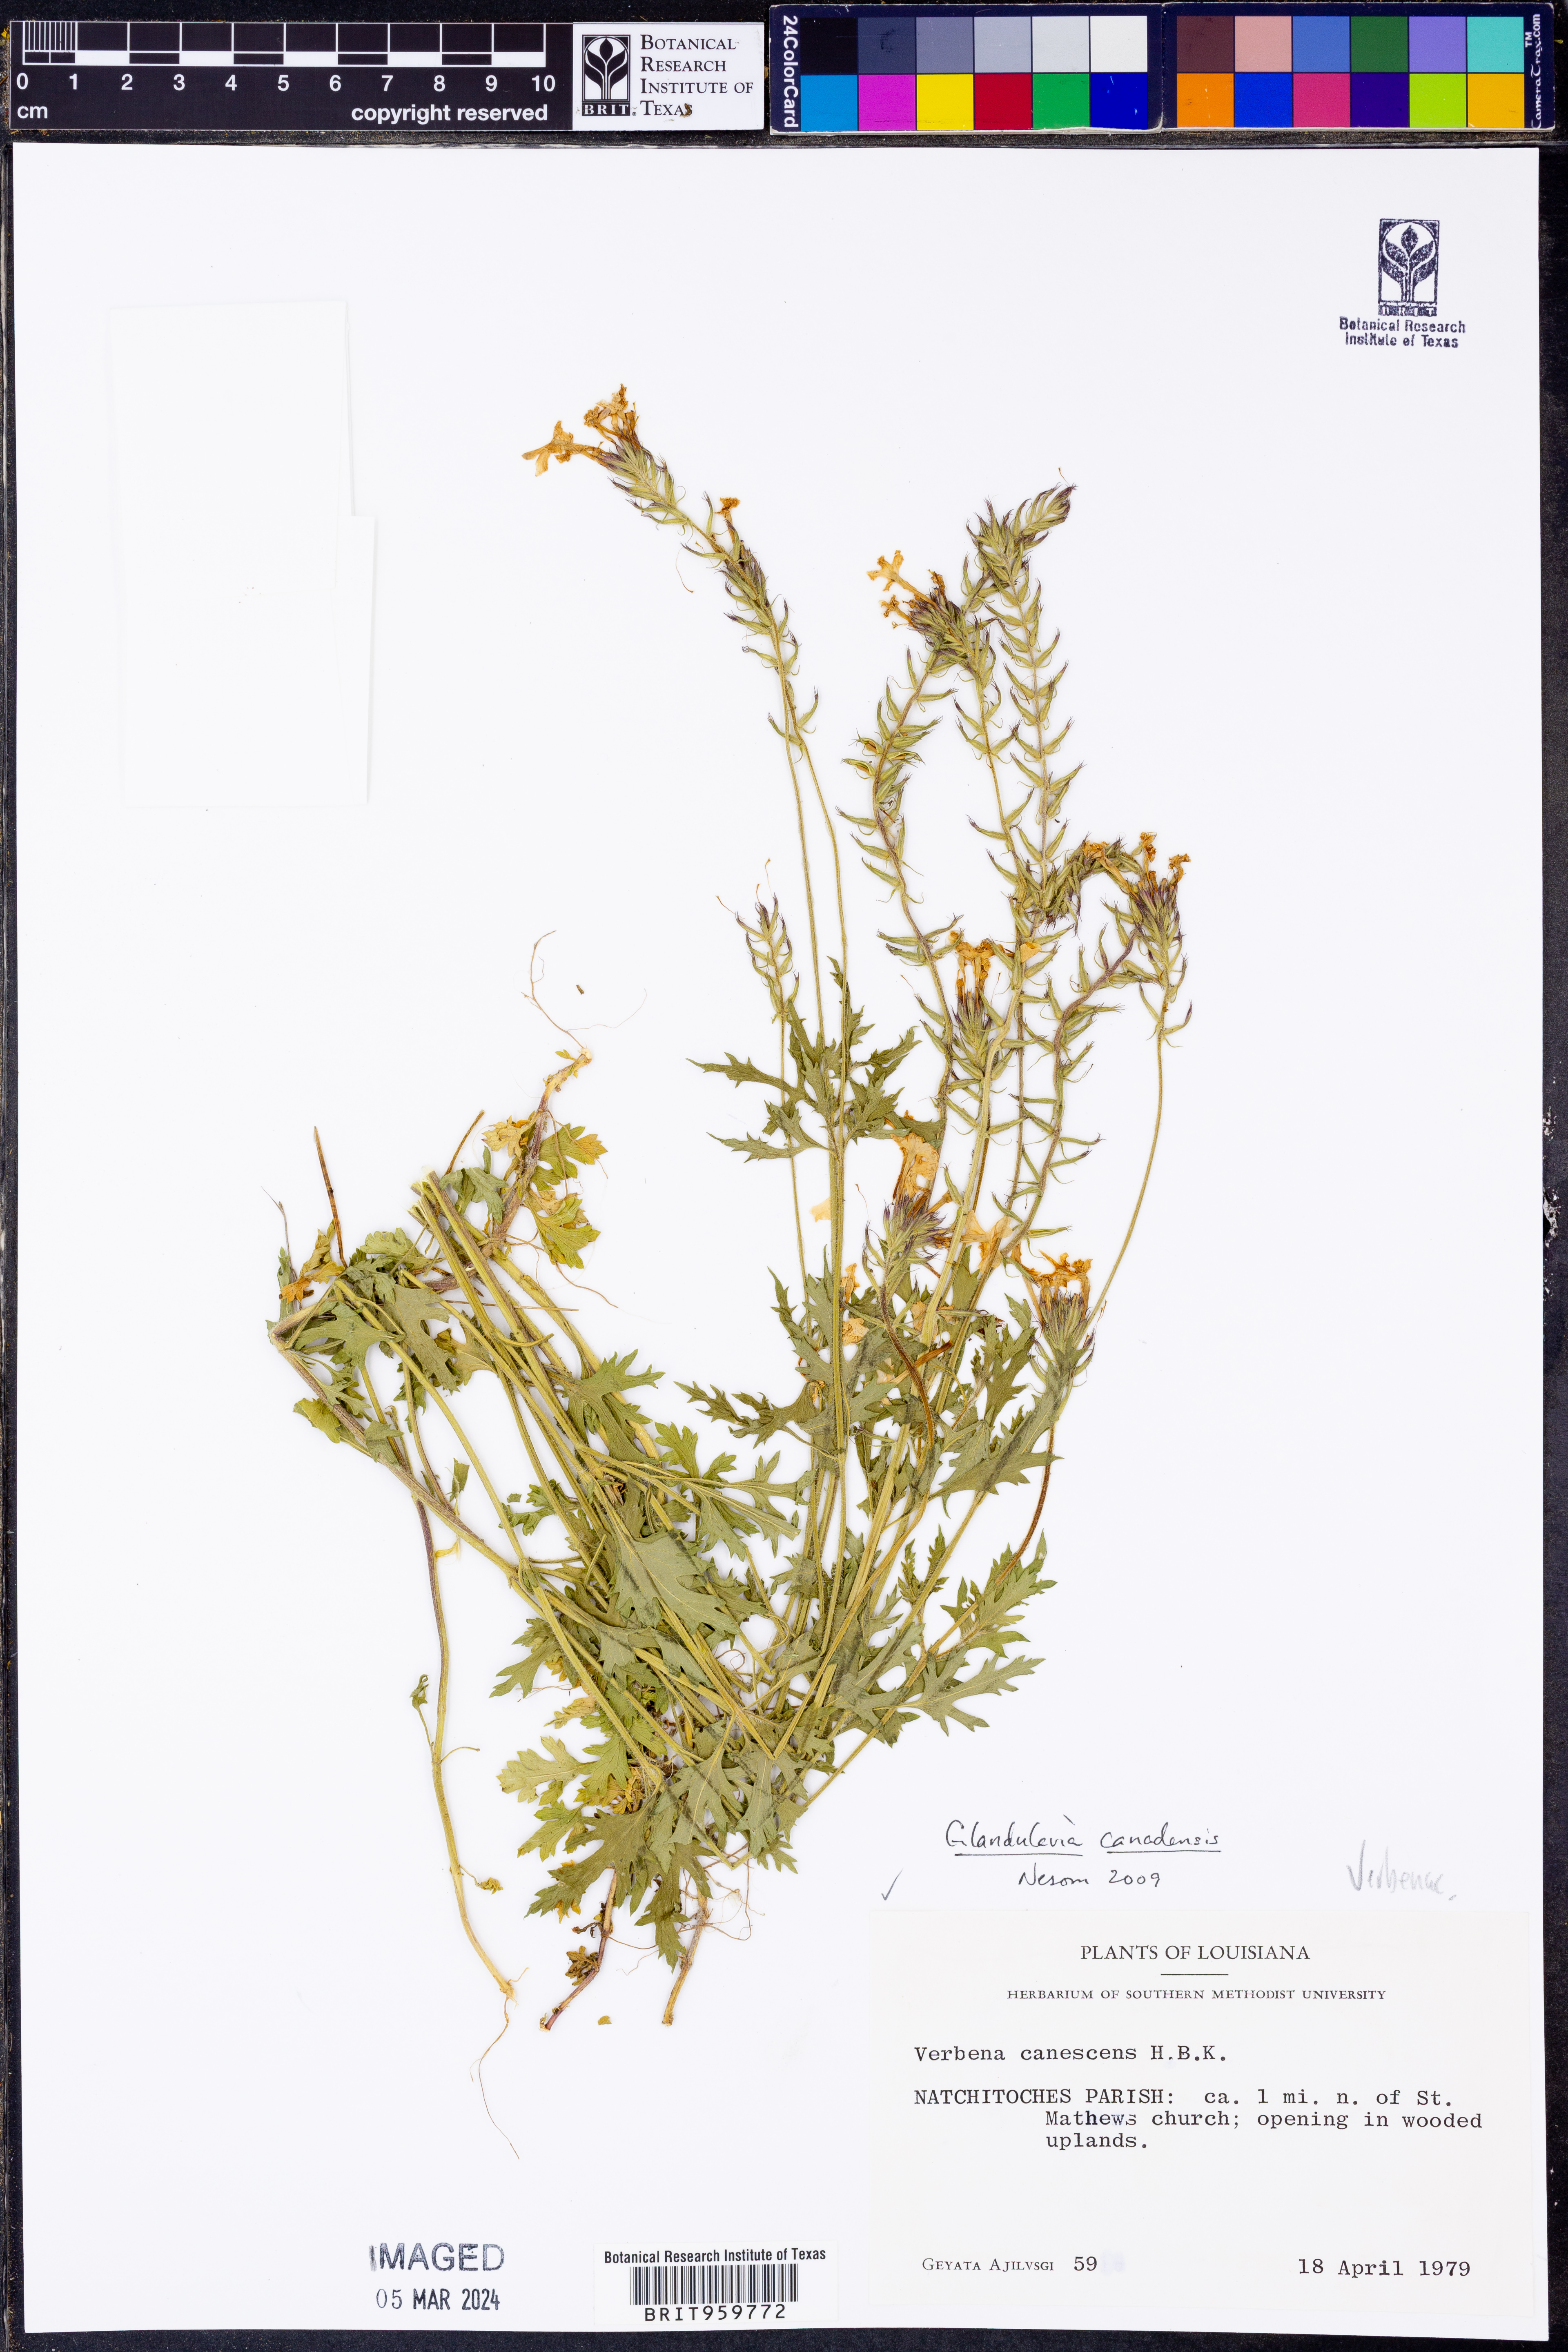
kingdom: Plantae
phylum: Tracheophyta
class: Magnoliopsida
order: Lamiales
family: Verbenaceae
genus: Verbena
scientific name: Verbena canadensis
